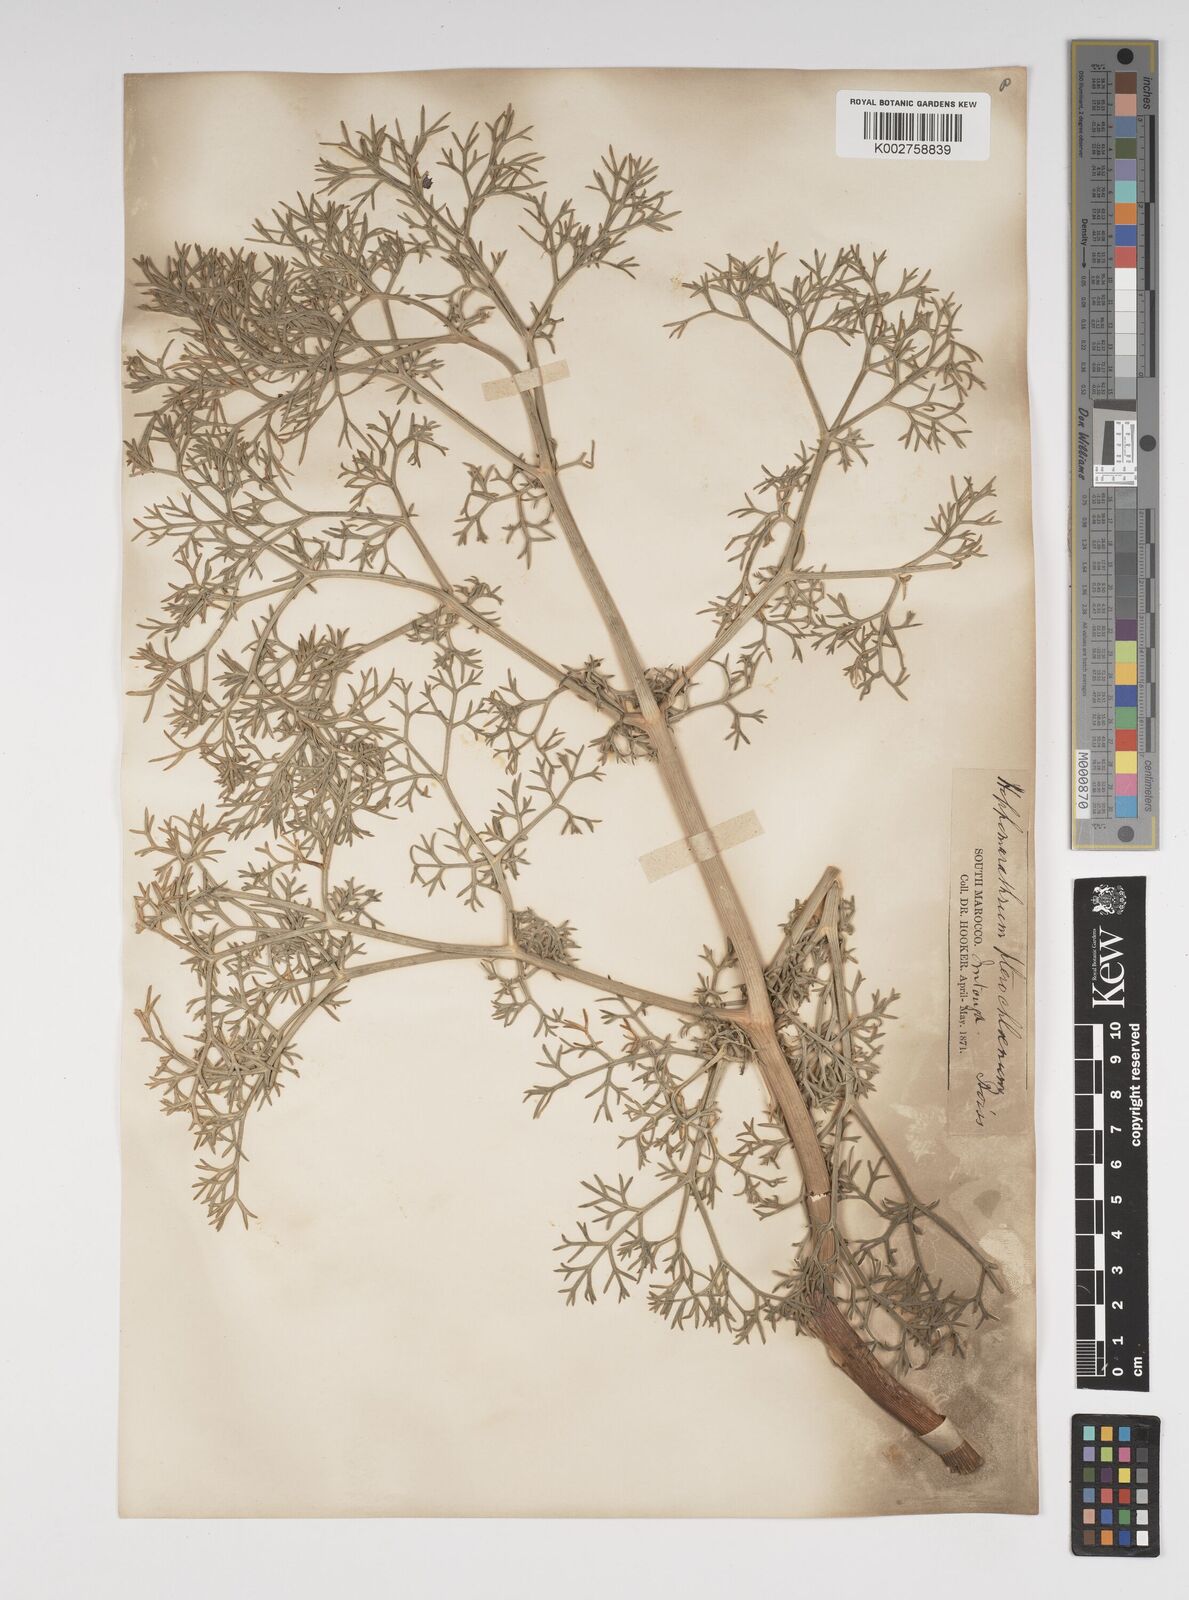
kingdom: Plantae
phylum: Tracheophyta
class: Magnoliopsida
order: Apiales
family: Apiaceae
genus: Cachrys
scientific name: Cachrys sicula
